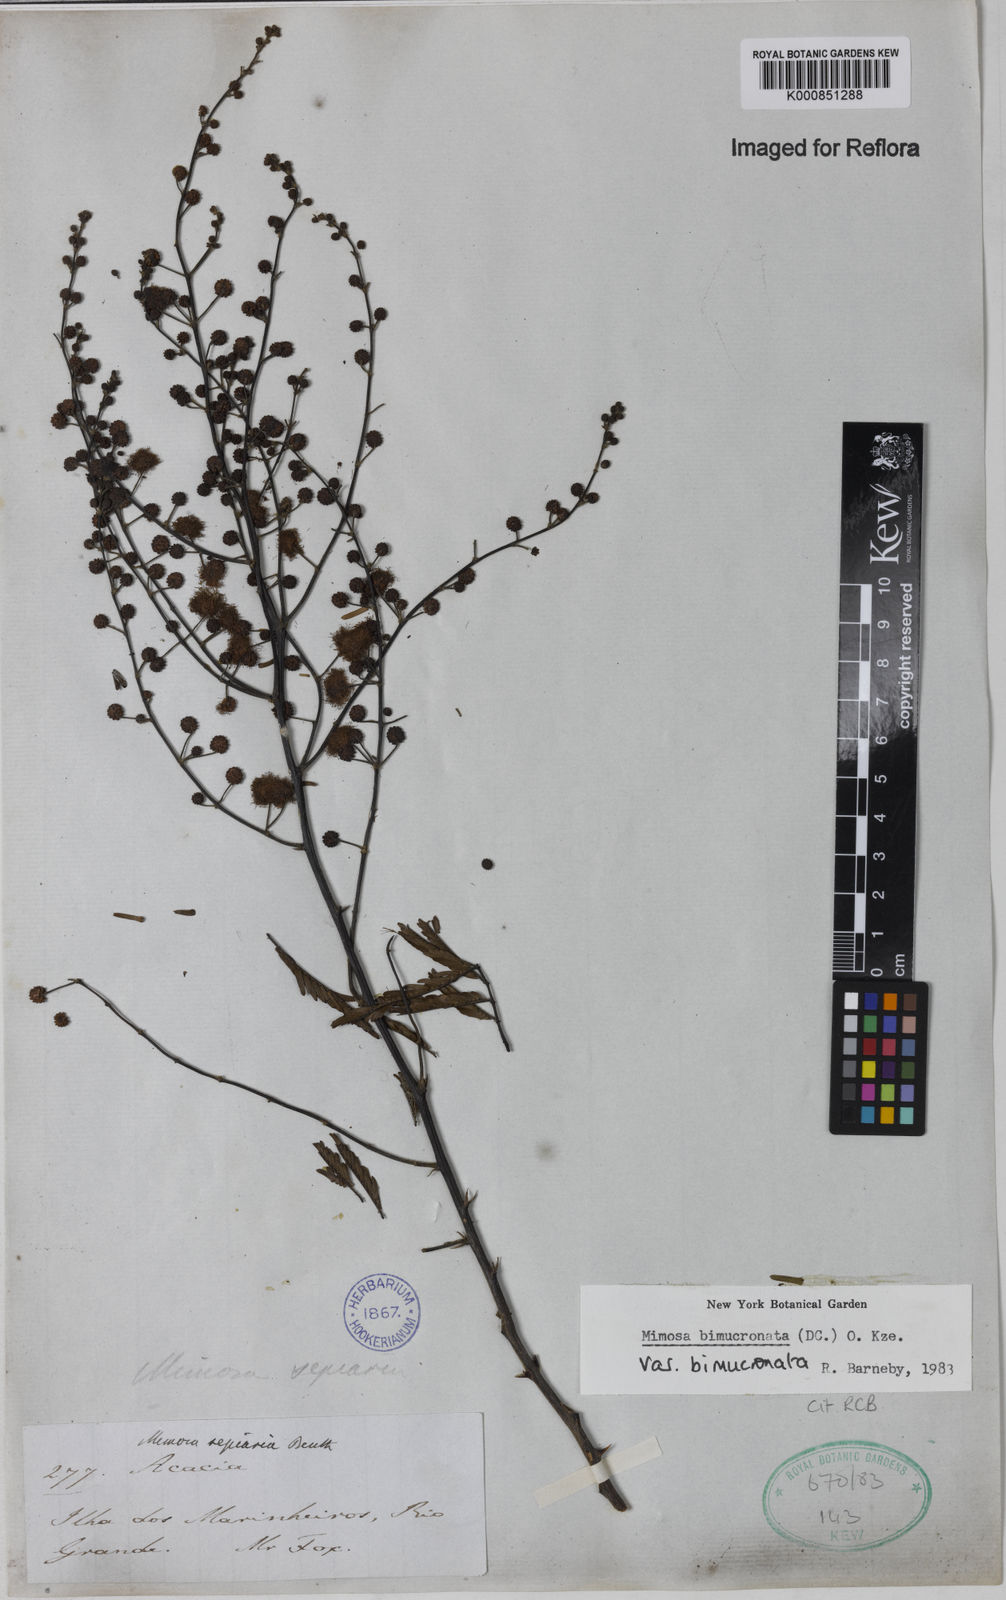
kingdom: Plantae
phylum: Tracheophyta
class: Magnoliopsida
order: Fabales
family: Fabaceae
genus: Mimosa
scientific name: Mimosa bimucronata
